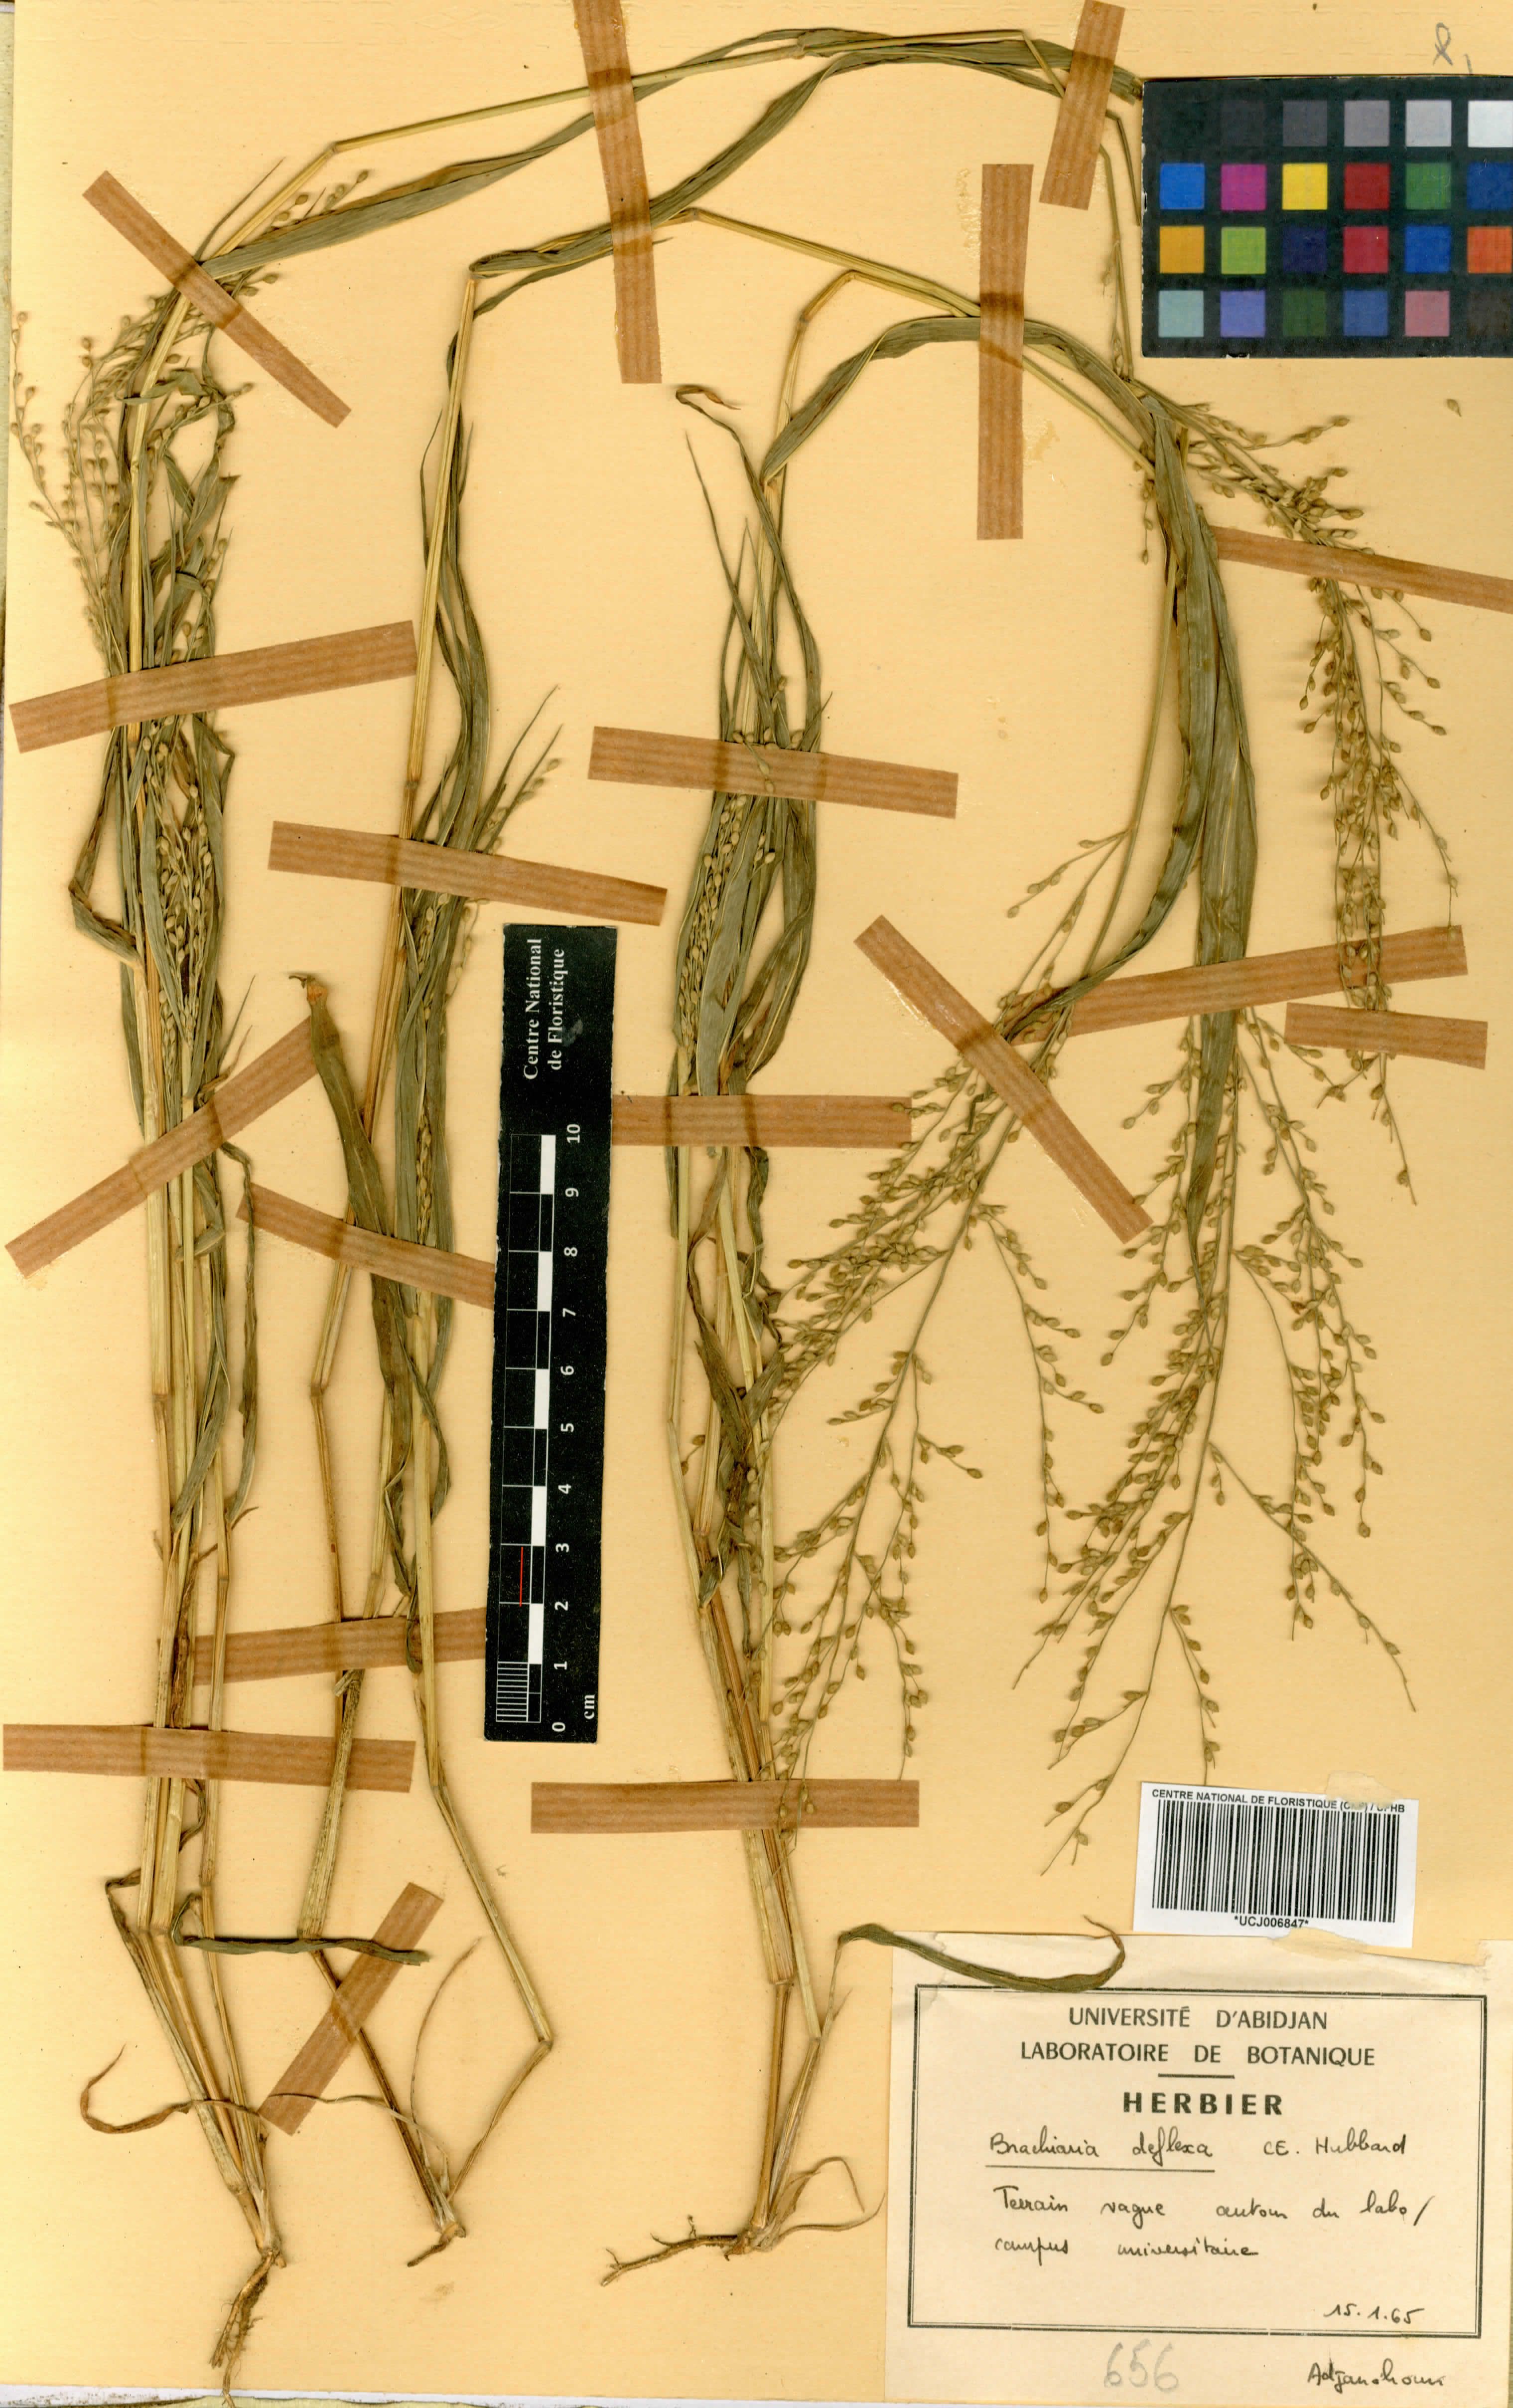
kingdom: Plantae
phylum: Tracheophyta
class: Liliopsida
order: Poales
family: Poaceae
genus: Urochloa
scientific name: Urochloa deflexa
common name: Guinea millet
